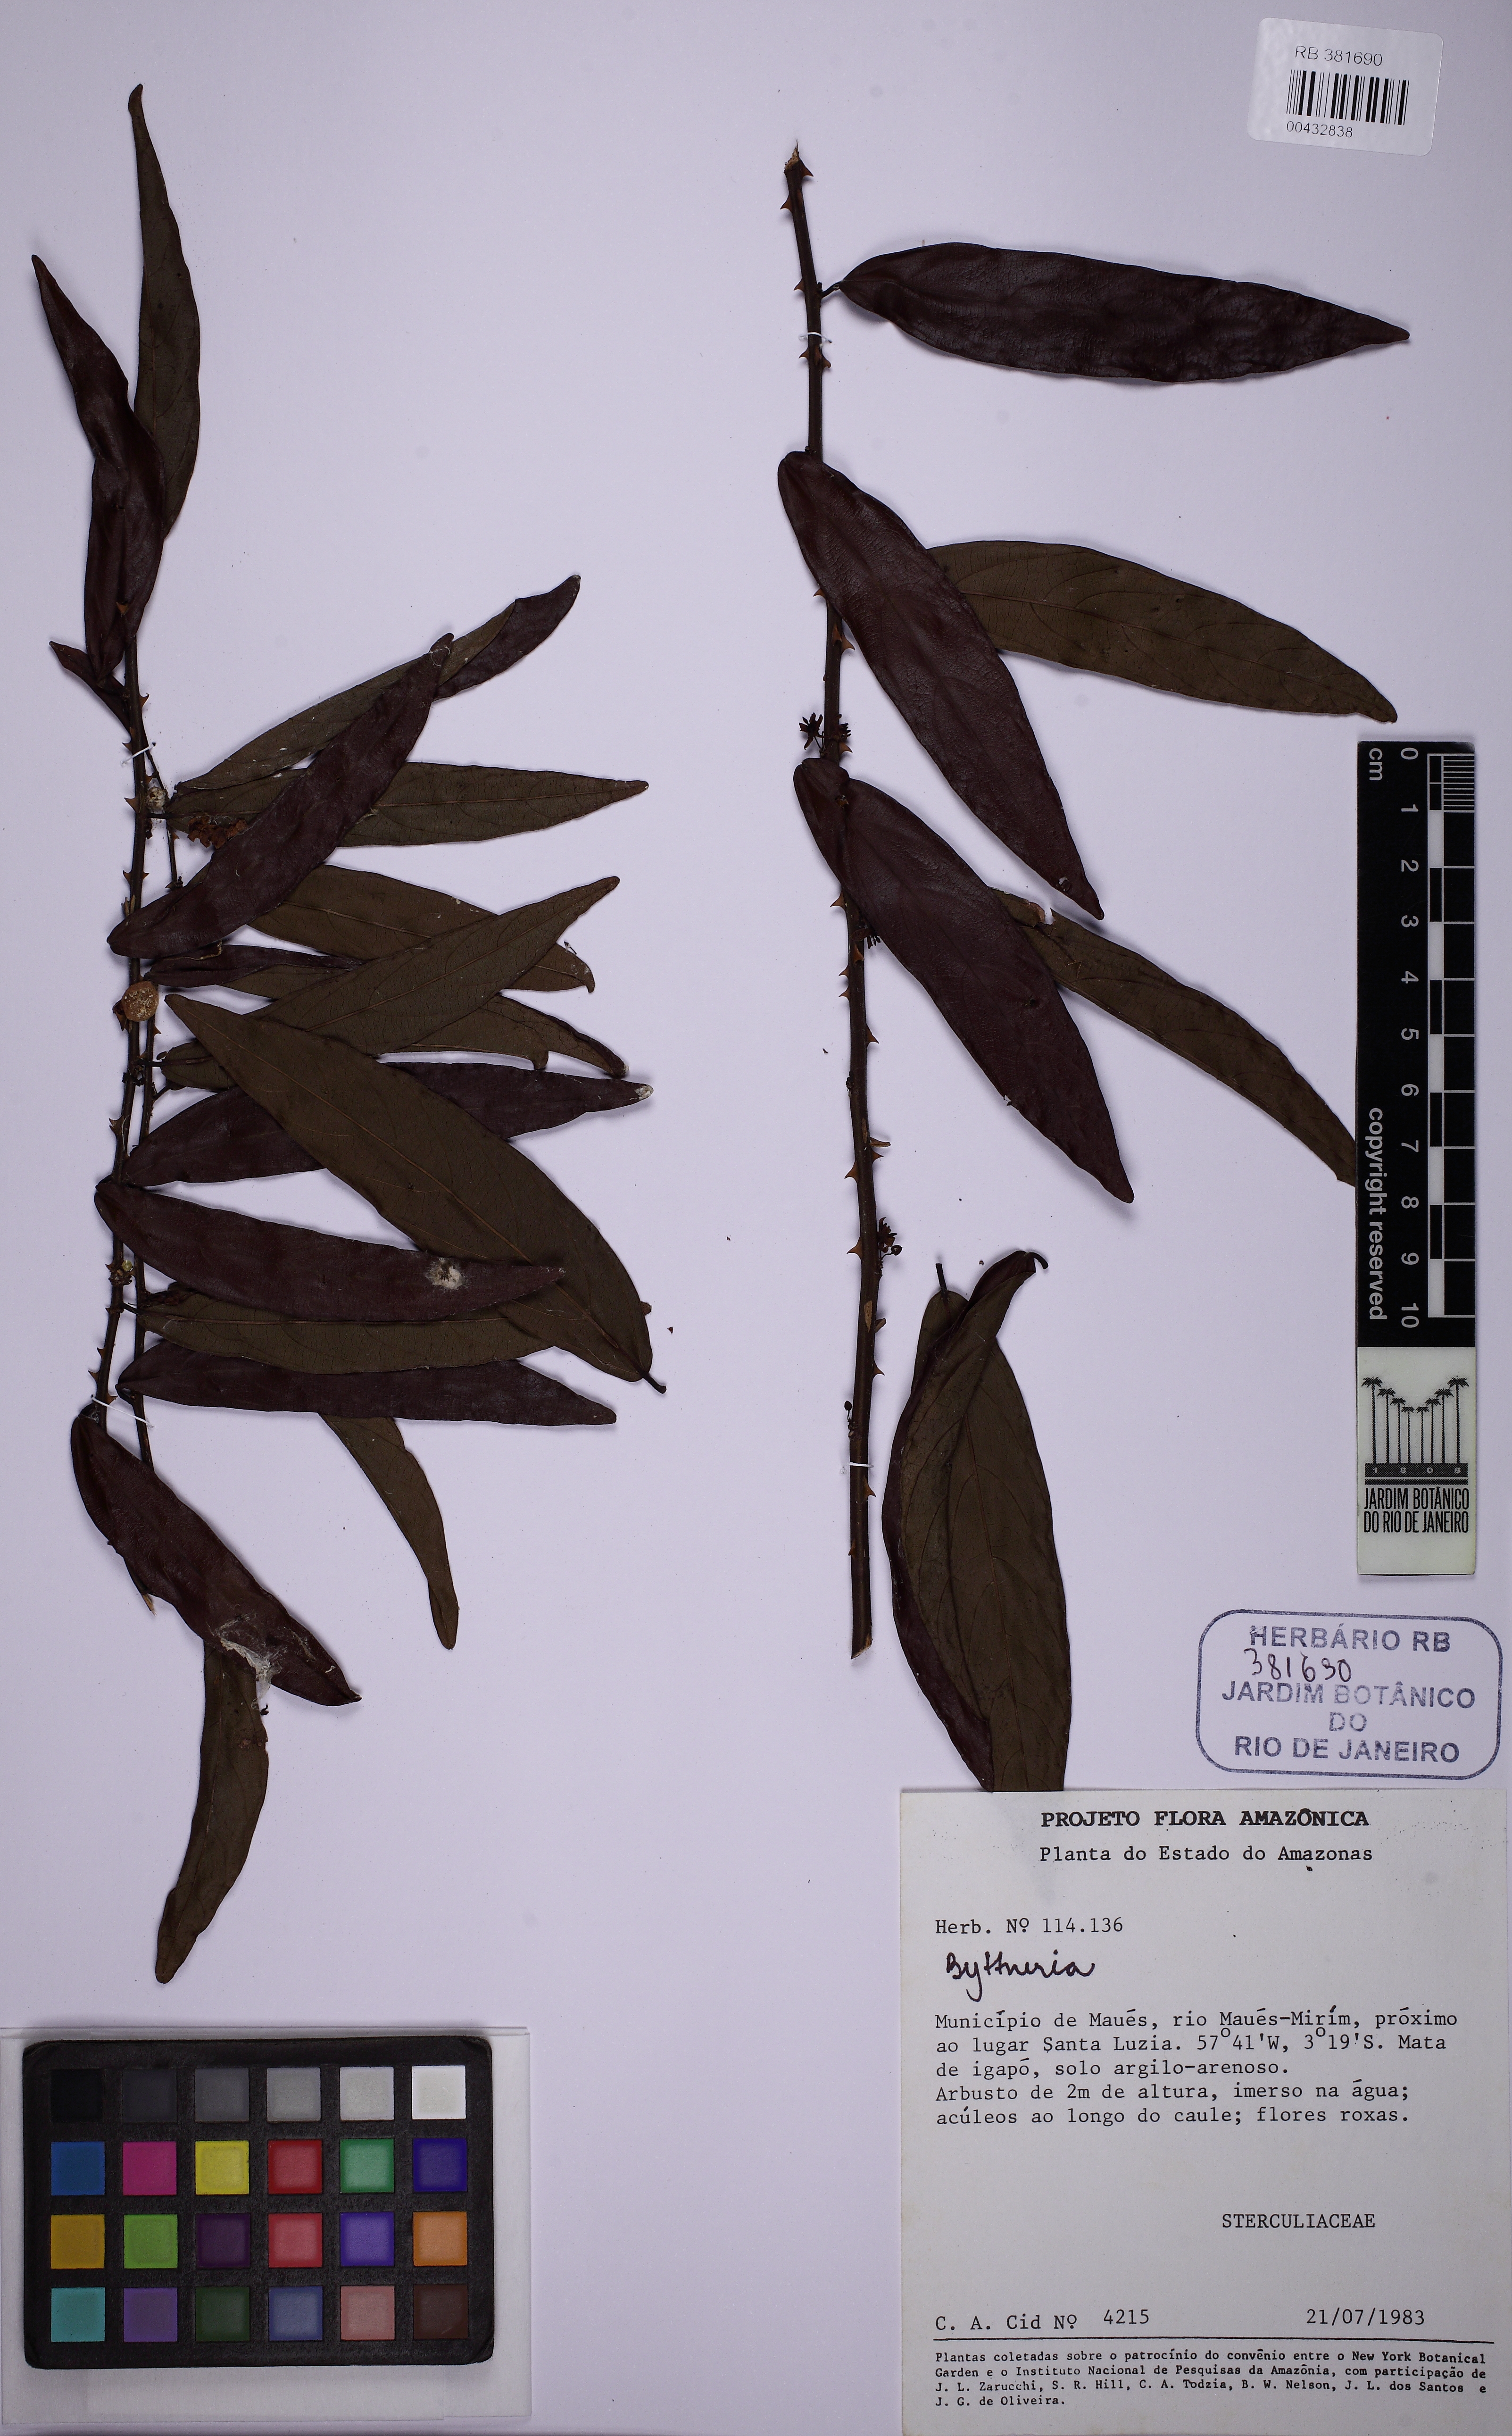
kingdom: Plantae
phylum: Tracheophyta
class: Magnoliopsida
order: Malvales
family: Malvaceae
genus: Byttneria
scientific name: Byttneria
